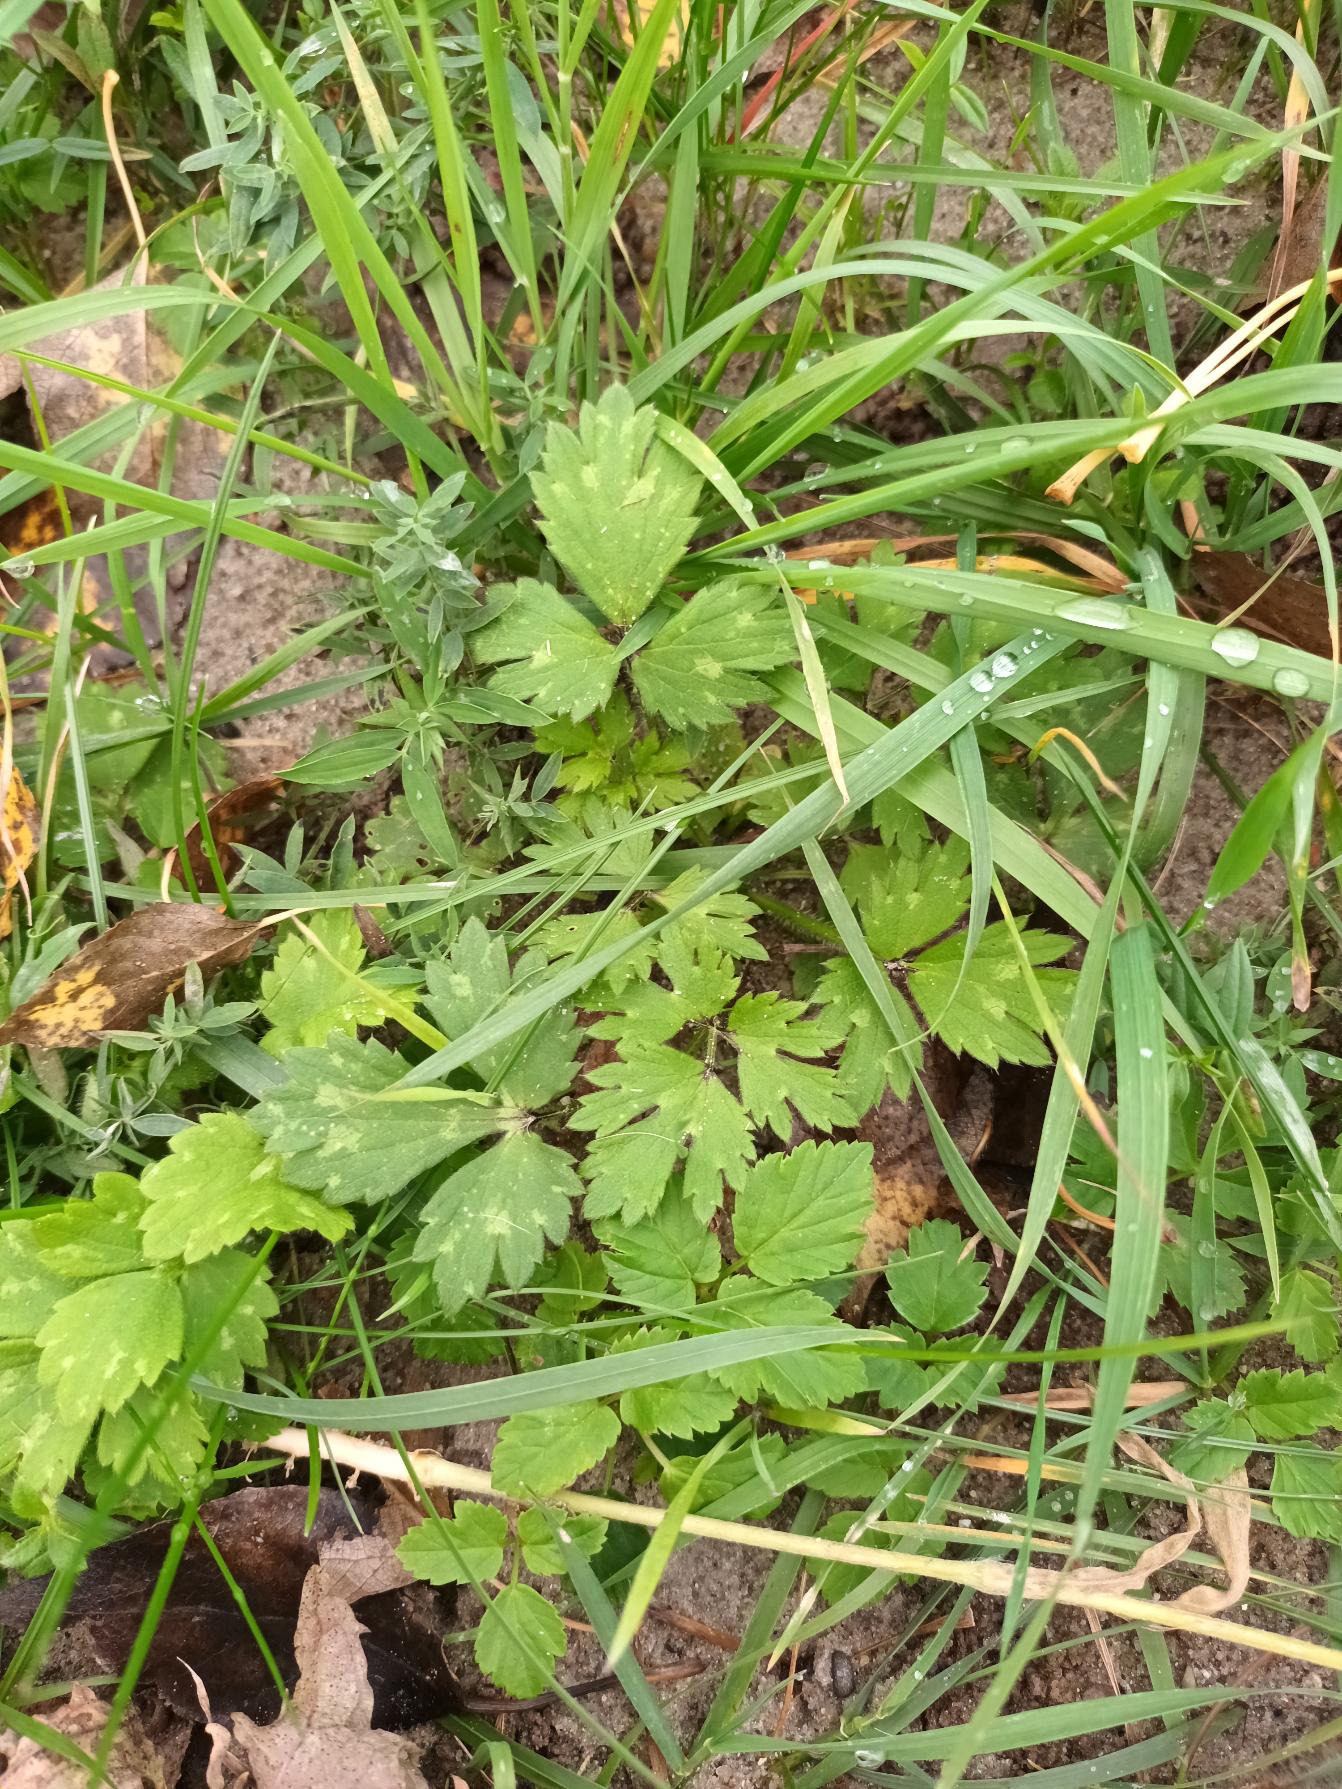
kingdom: Plantae
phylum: Tracheophyta
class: Magnoliopsida
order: Ranunculales
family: Ranunculaceae
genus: Ranunculus
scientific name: Ranunculus repens
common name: Lav ranunkel
